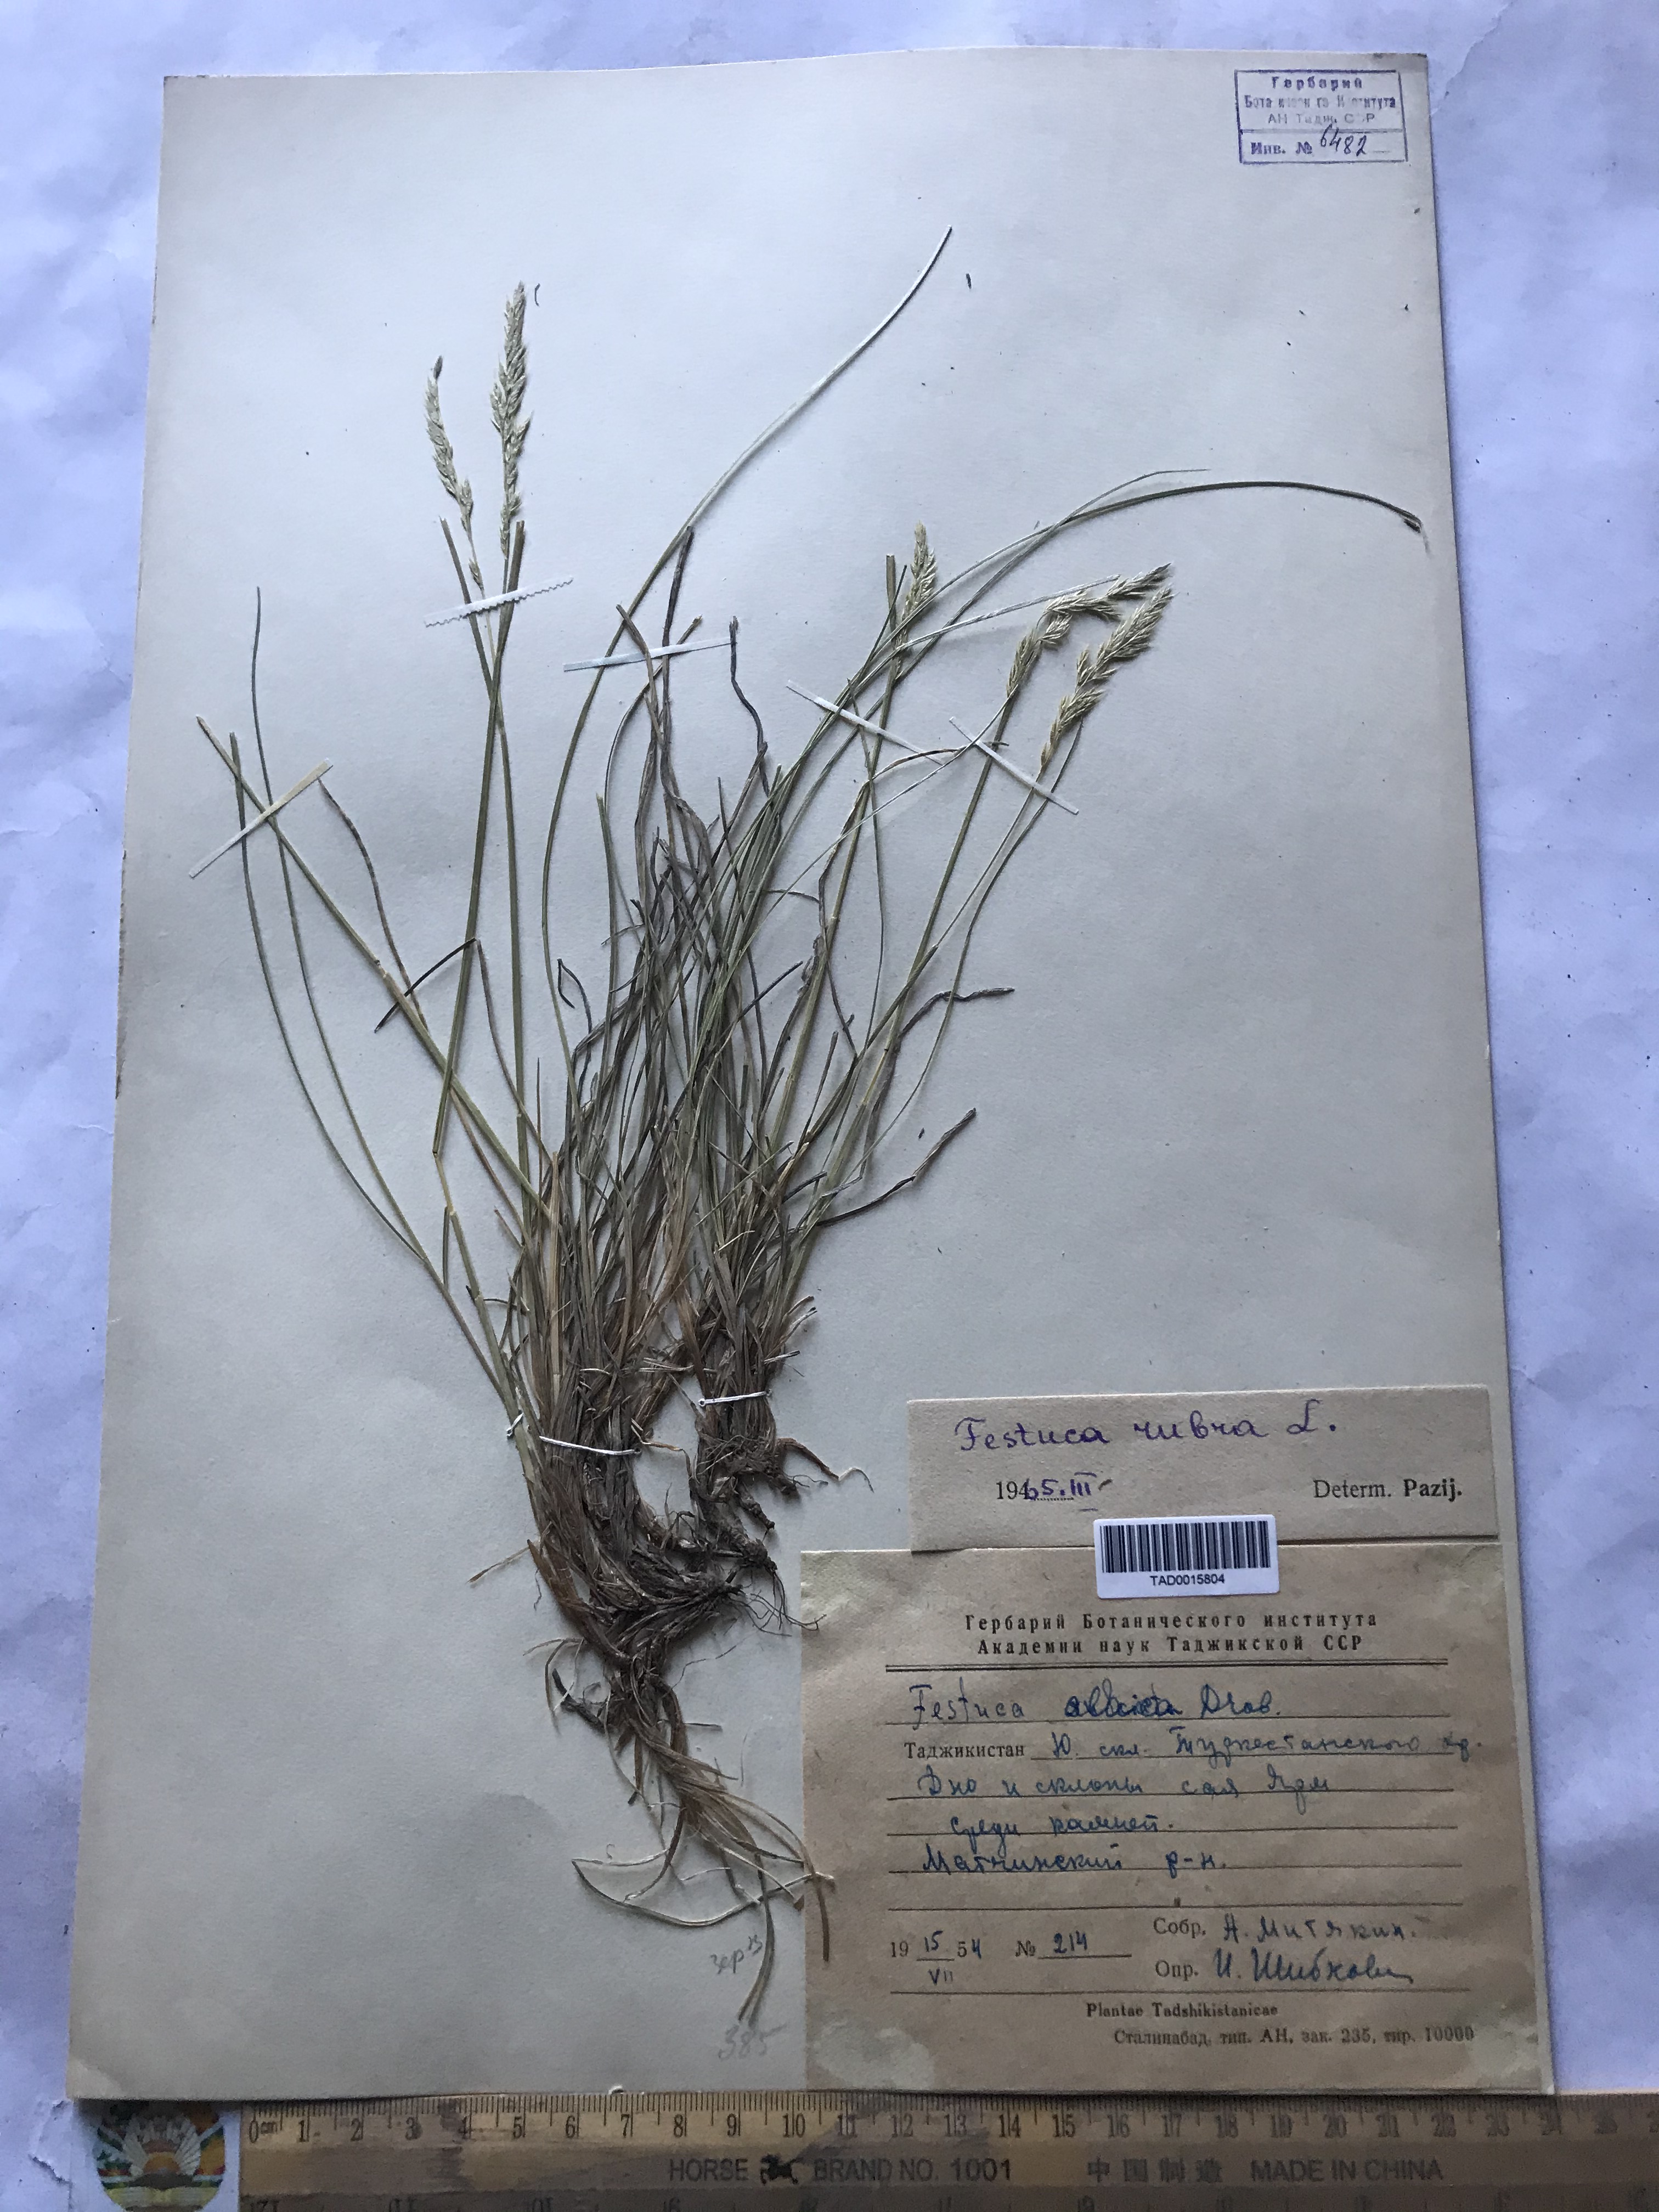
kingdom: Plantae
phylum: Tracheophyta
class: Liliopsida
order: Poales
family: Poaceae
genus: Festuca
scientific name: Festuca rubra
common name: Red fescue
